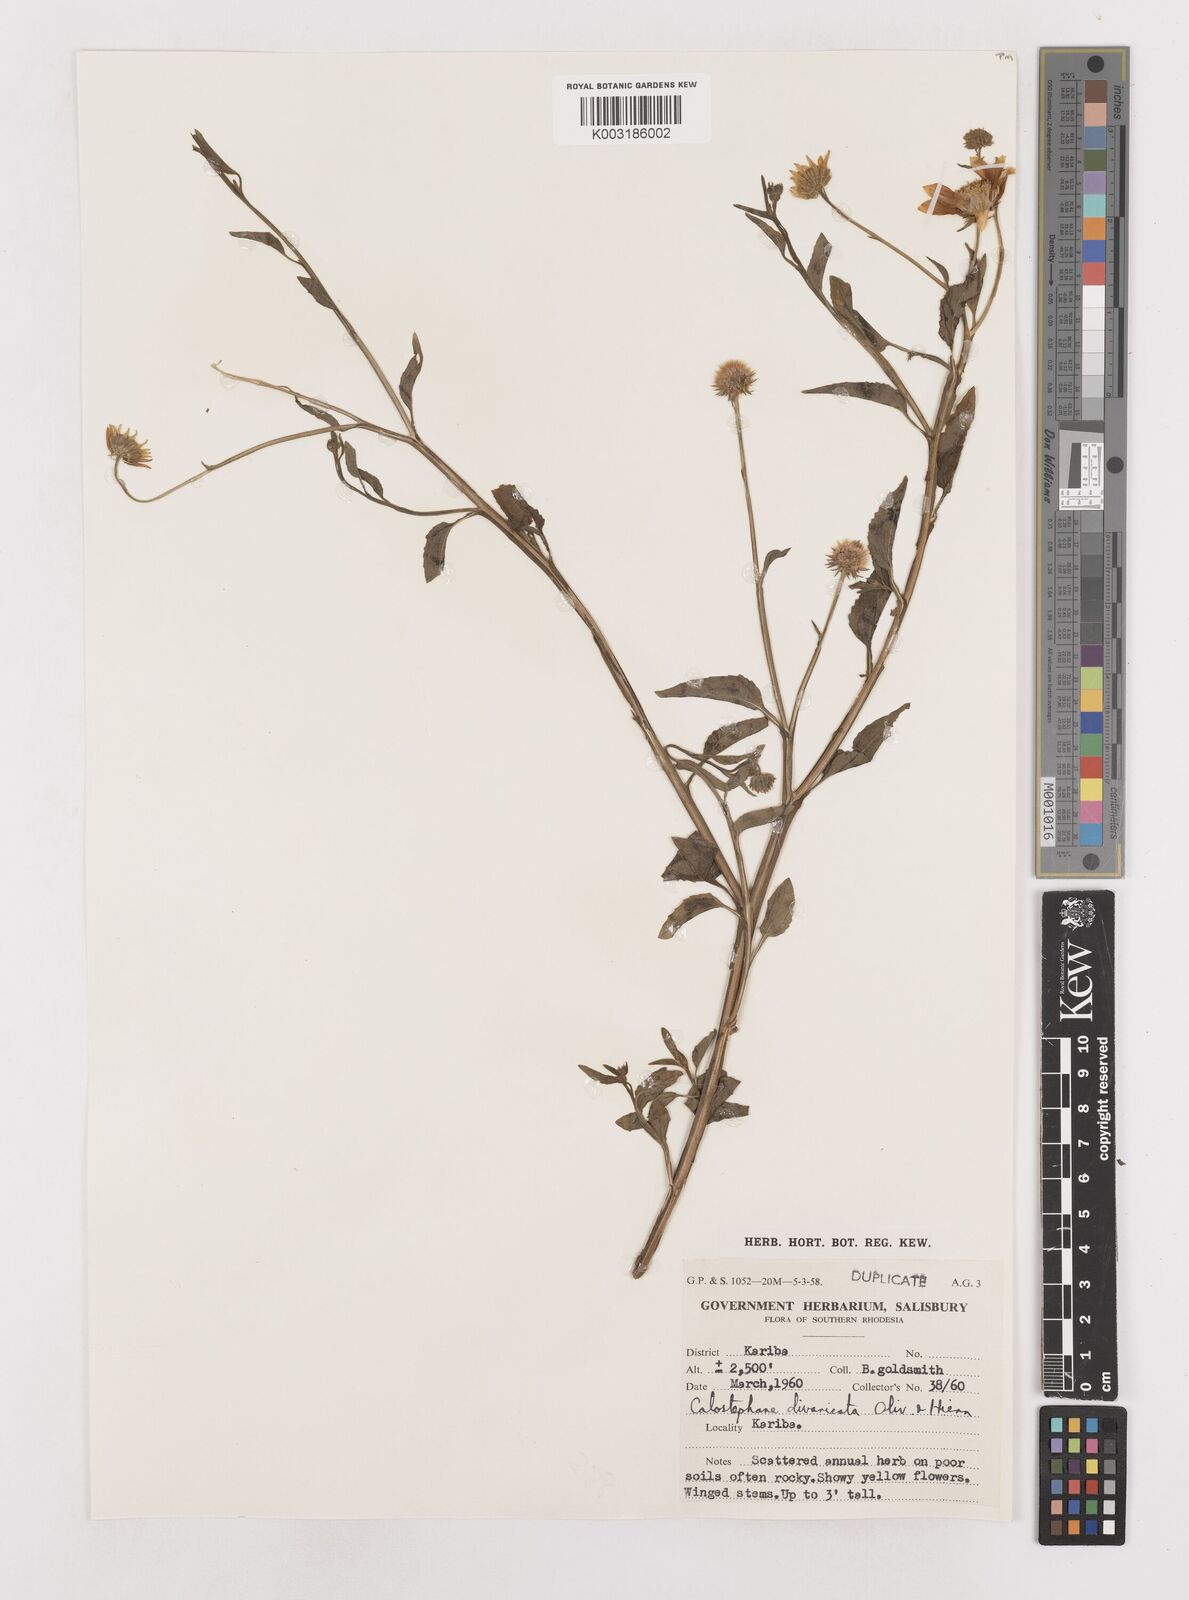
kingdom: Plantae
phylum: Tracheophyta
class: Magnoliopsida
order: Asterales
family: Asteraceae
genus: Calostephane
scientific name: Calostephane divaricata
